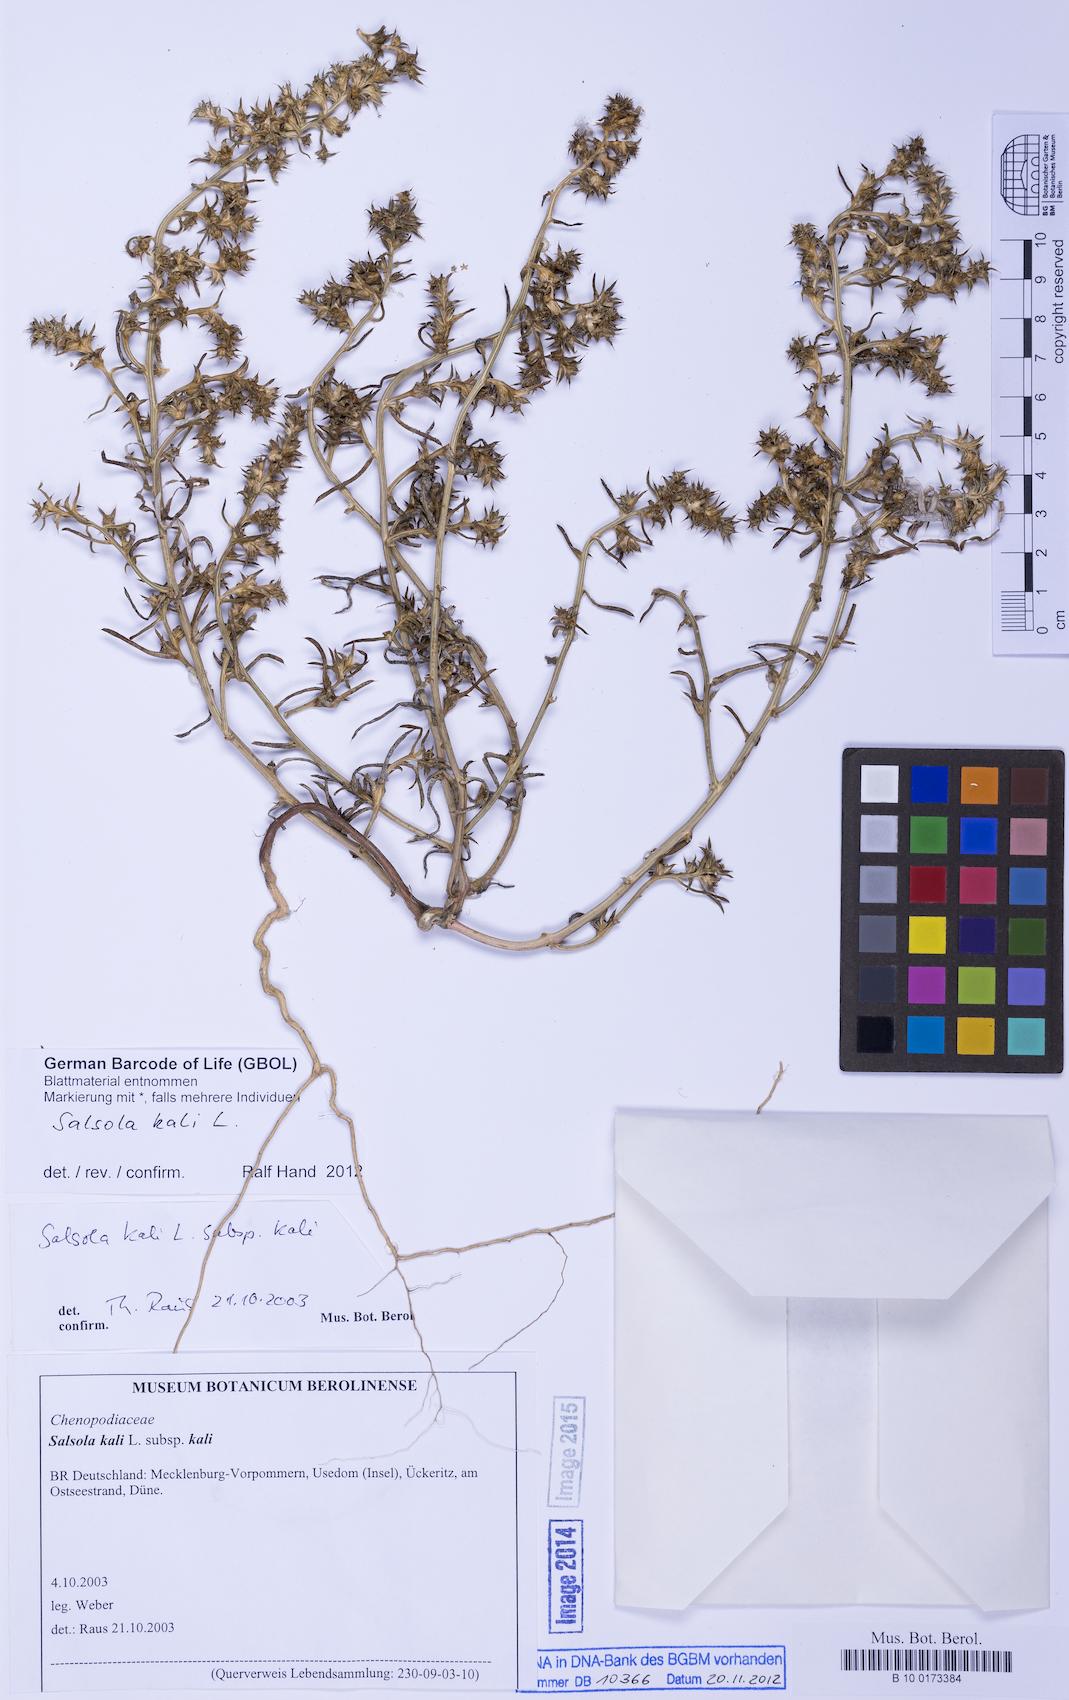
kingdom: Plantae
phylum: Tracheophyta
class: Magnoliopsida
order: Caryophyllales
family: Amaranthaceae
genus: Salsola
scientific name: Salsola kali
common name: Saltwort
